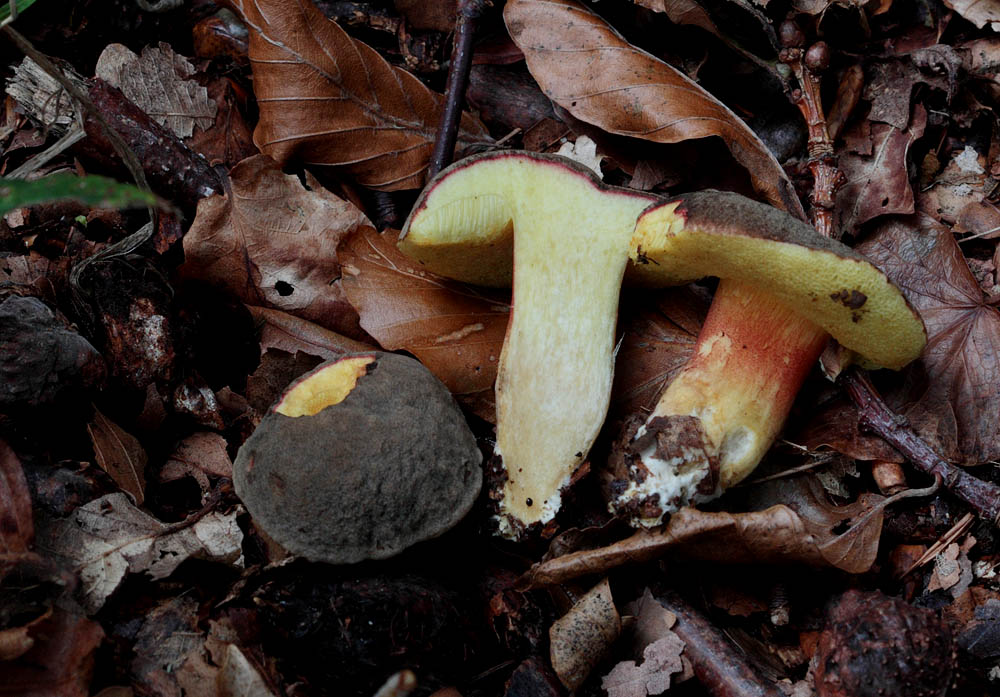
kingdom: Fungi
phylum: Basidiomycota
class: Agaricomycetes
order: Boletales
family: Boletaceae
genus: Xerocomellus
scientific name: Xerocomellus pruinatus
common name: dugget rørhat
